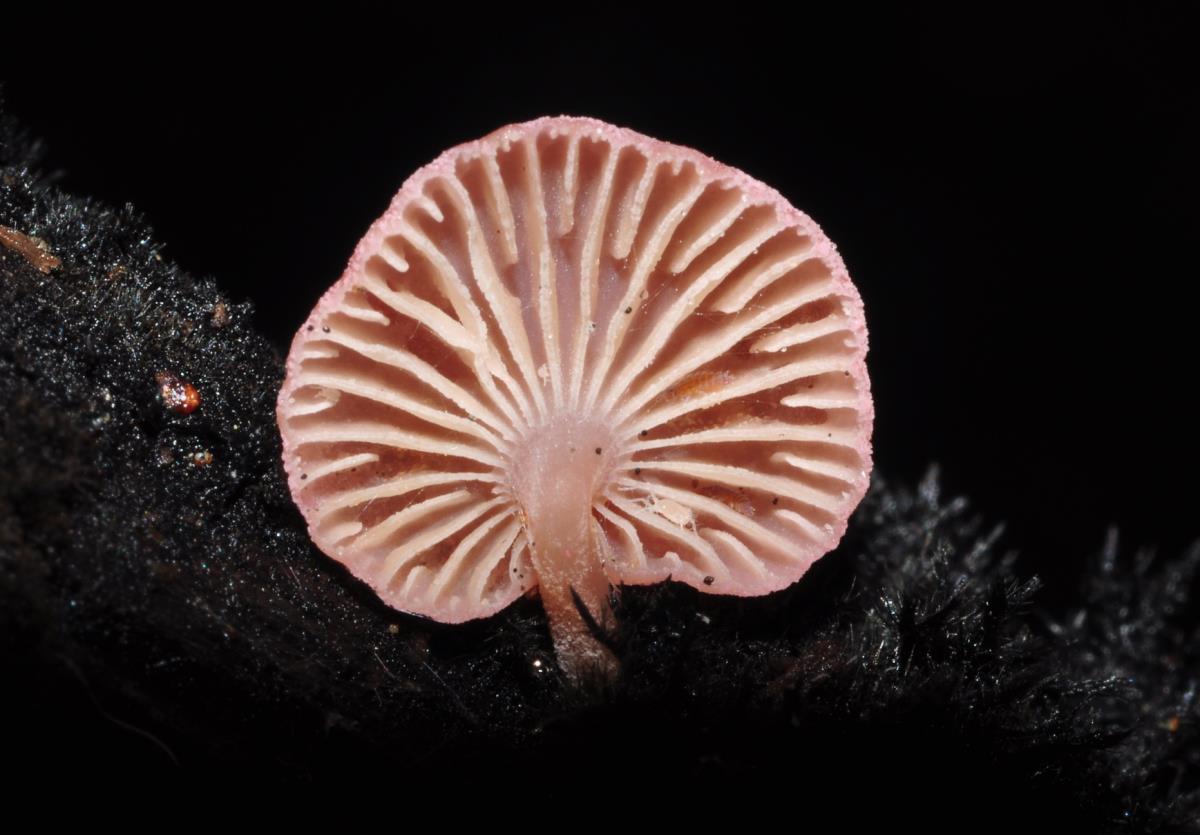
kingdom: Fungi
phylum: Basidiomycota
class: Agaricomycetes
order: Agaricales
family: Mycenaceae
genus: Mycena
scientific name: Mycena roseoflava
